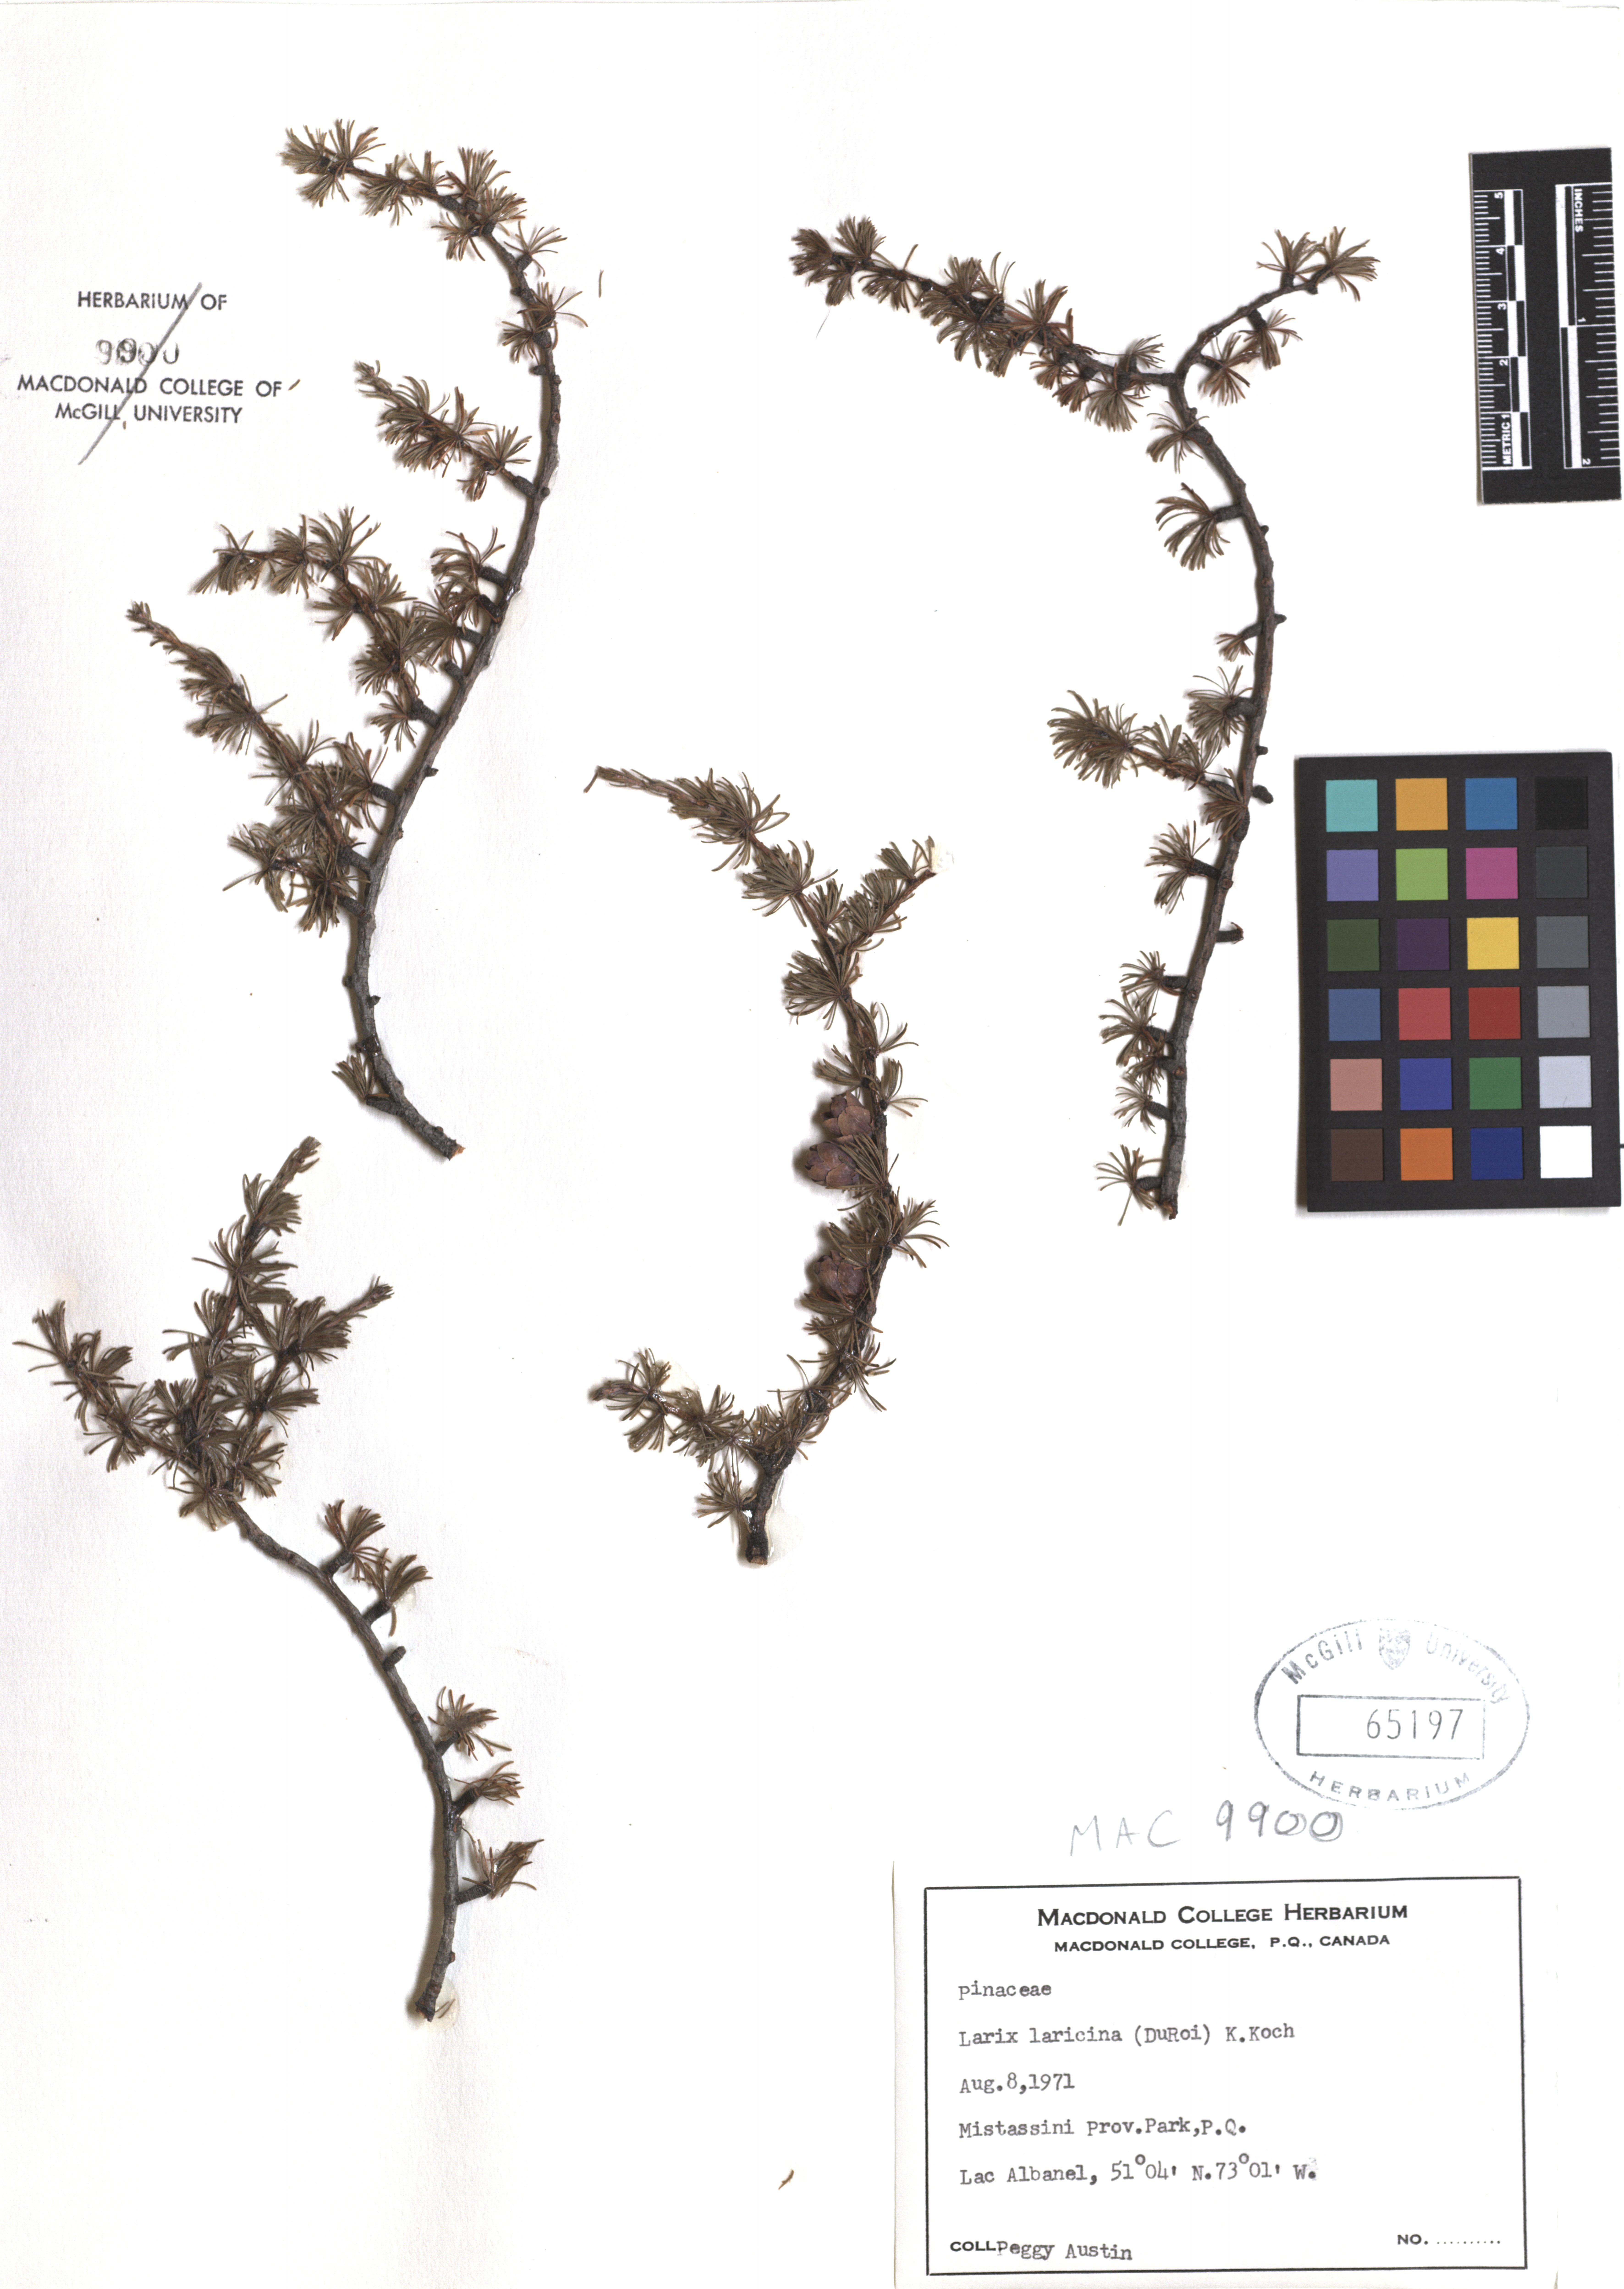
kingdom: Plantae
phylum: Tracheophyta
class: Pinopsida
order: Pinales
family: Pinaceae
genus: Larix
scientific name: Larix laricina
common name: American larch
